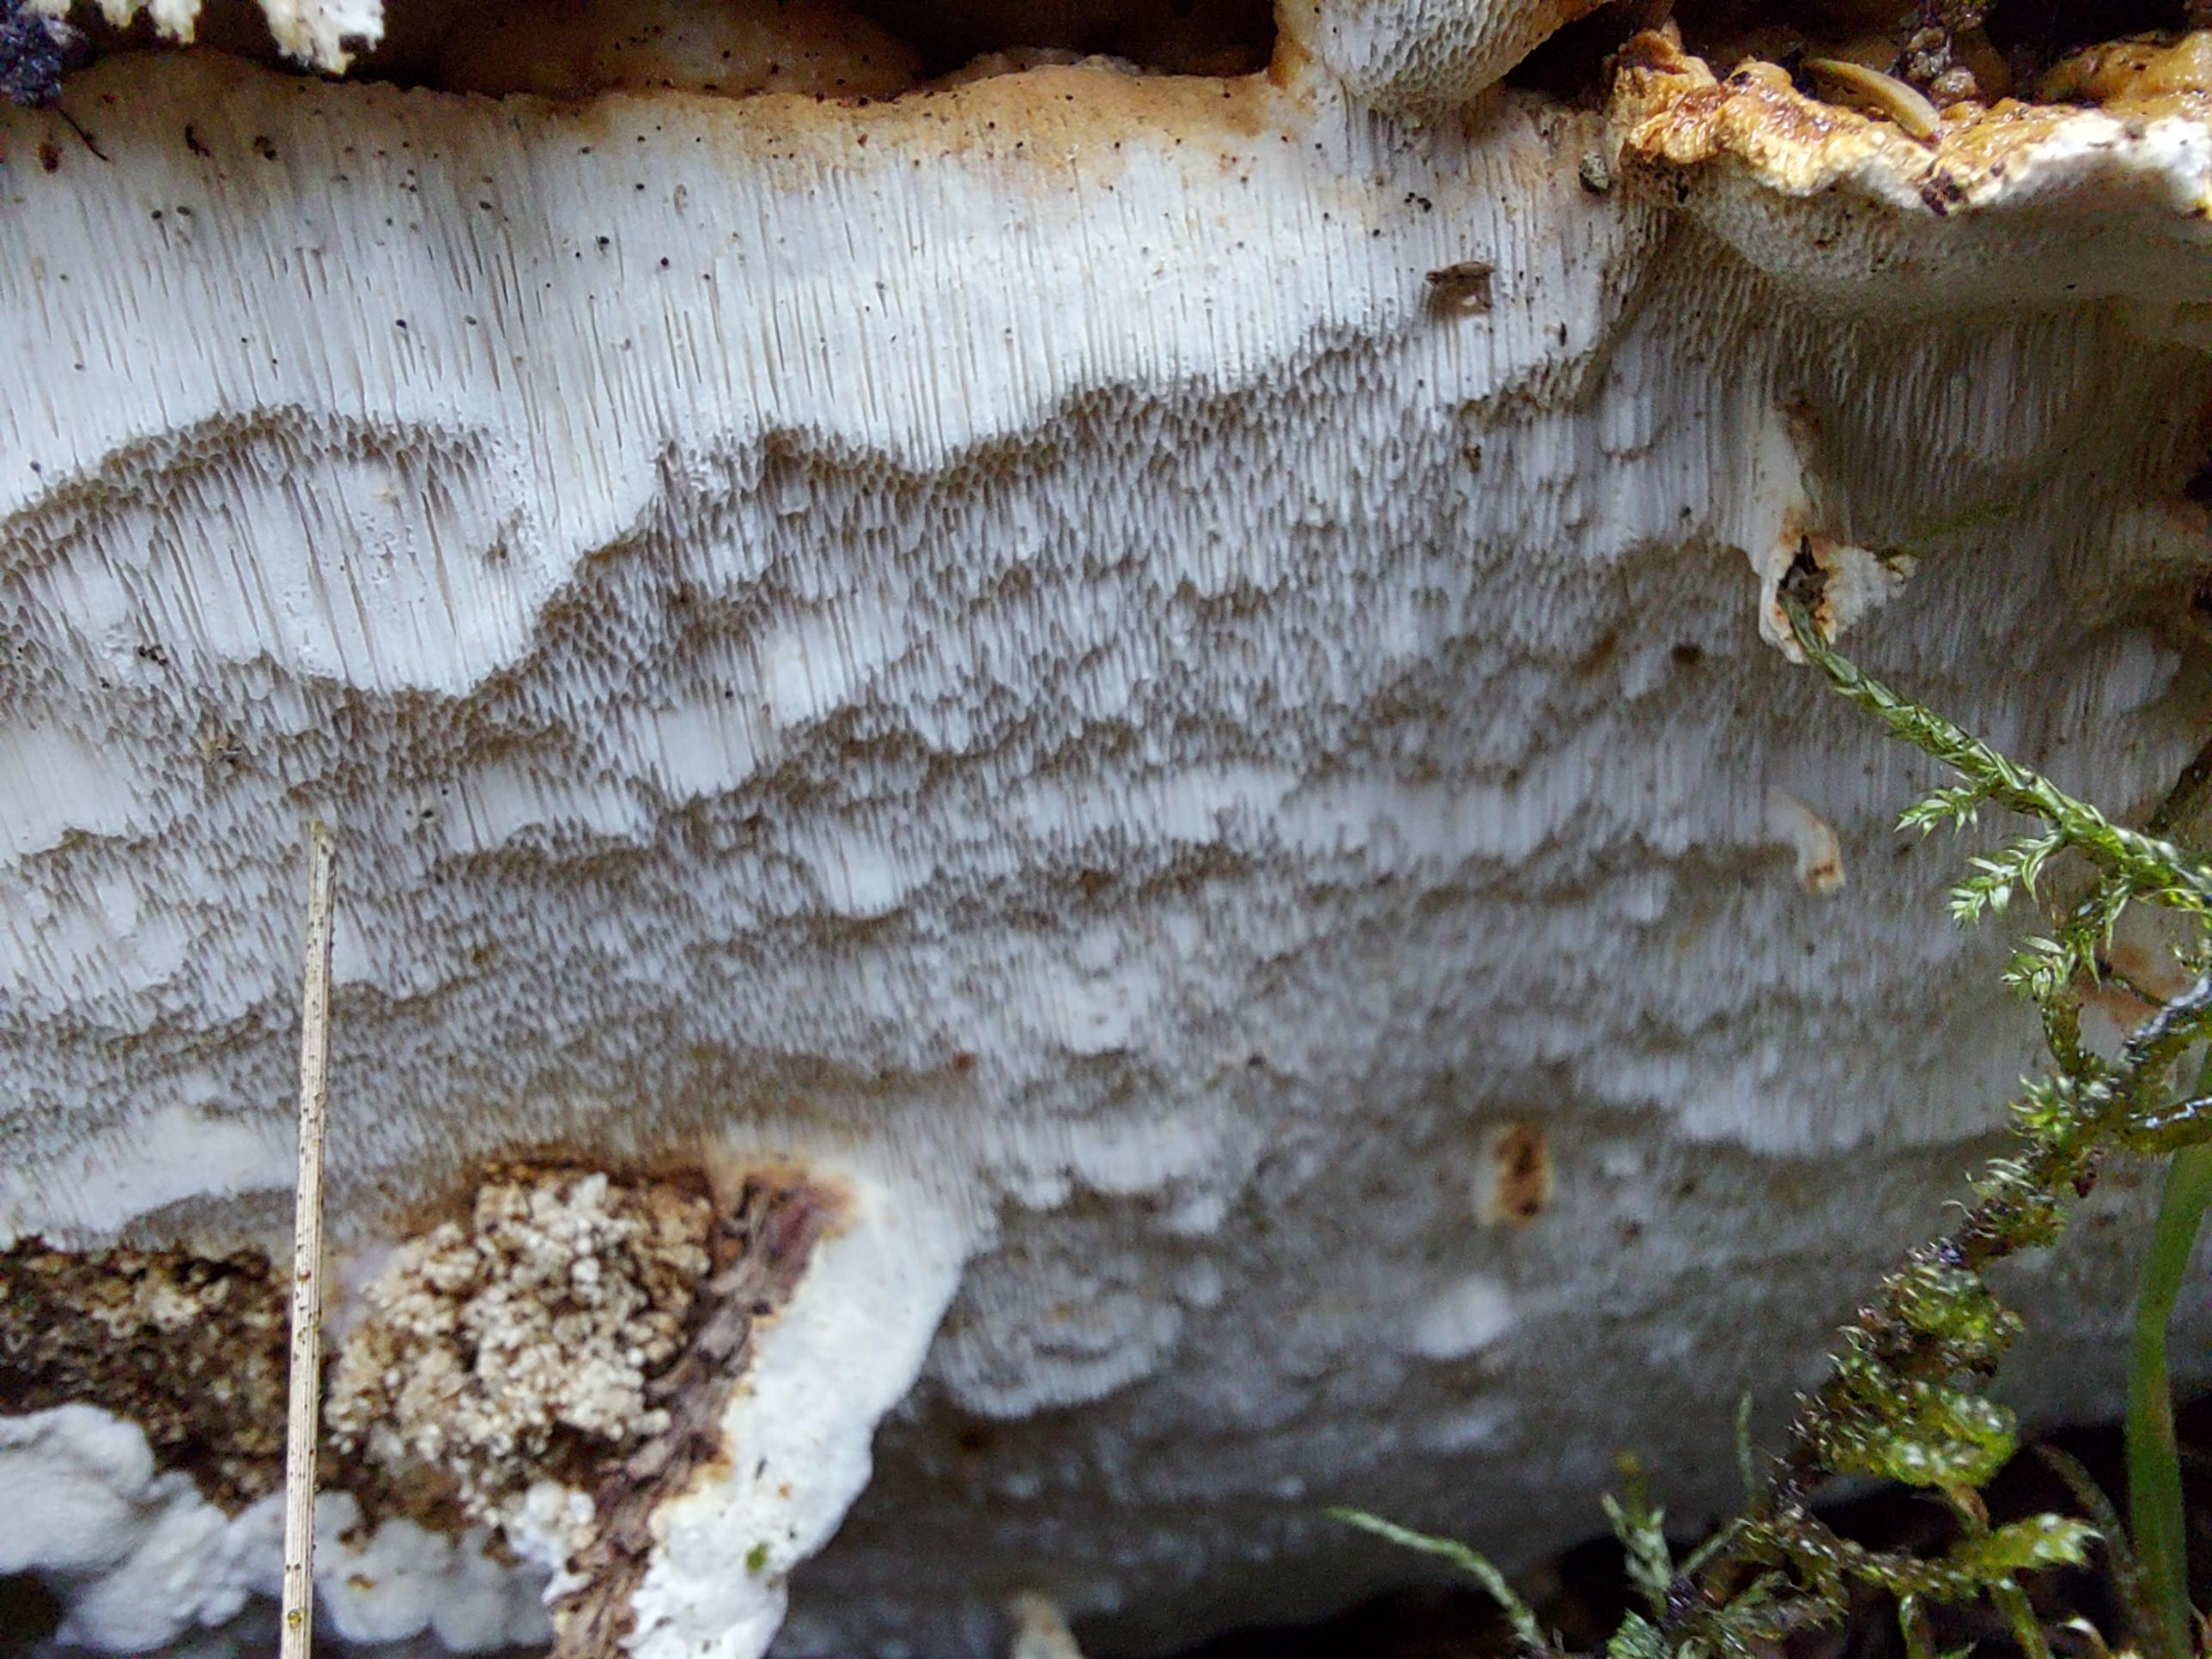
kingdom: Fungi
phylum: Basidiomycota
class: Agaricomycetes
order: Polyporales
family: Fomitopsidaceae
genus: Neoantrodia
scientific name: Neoantrodia serialis
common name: række-sejporesvamp
